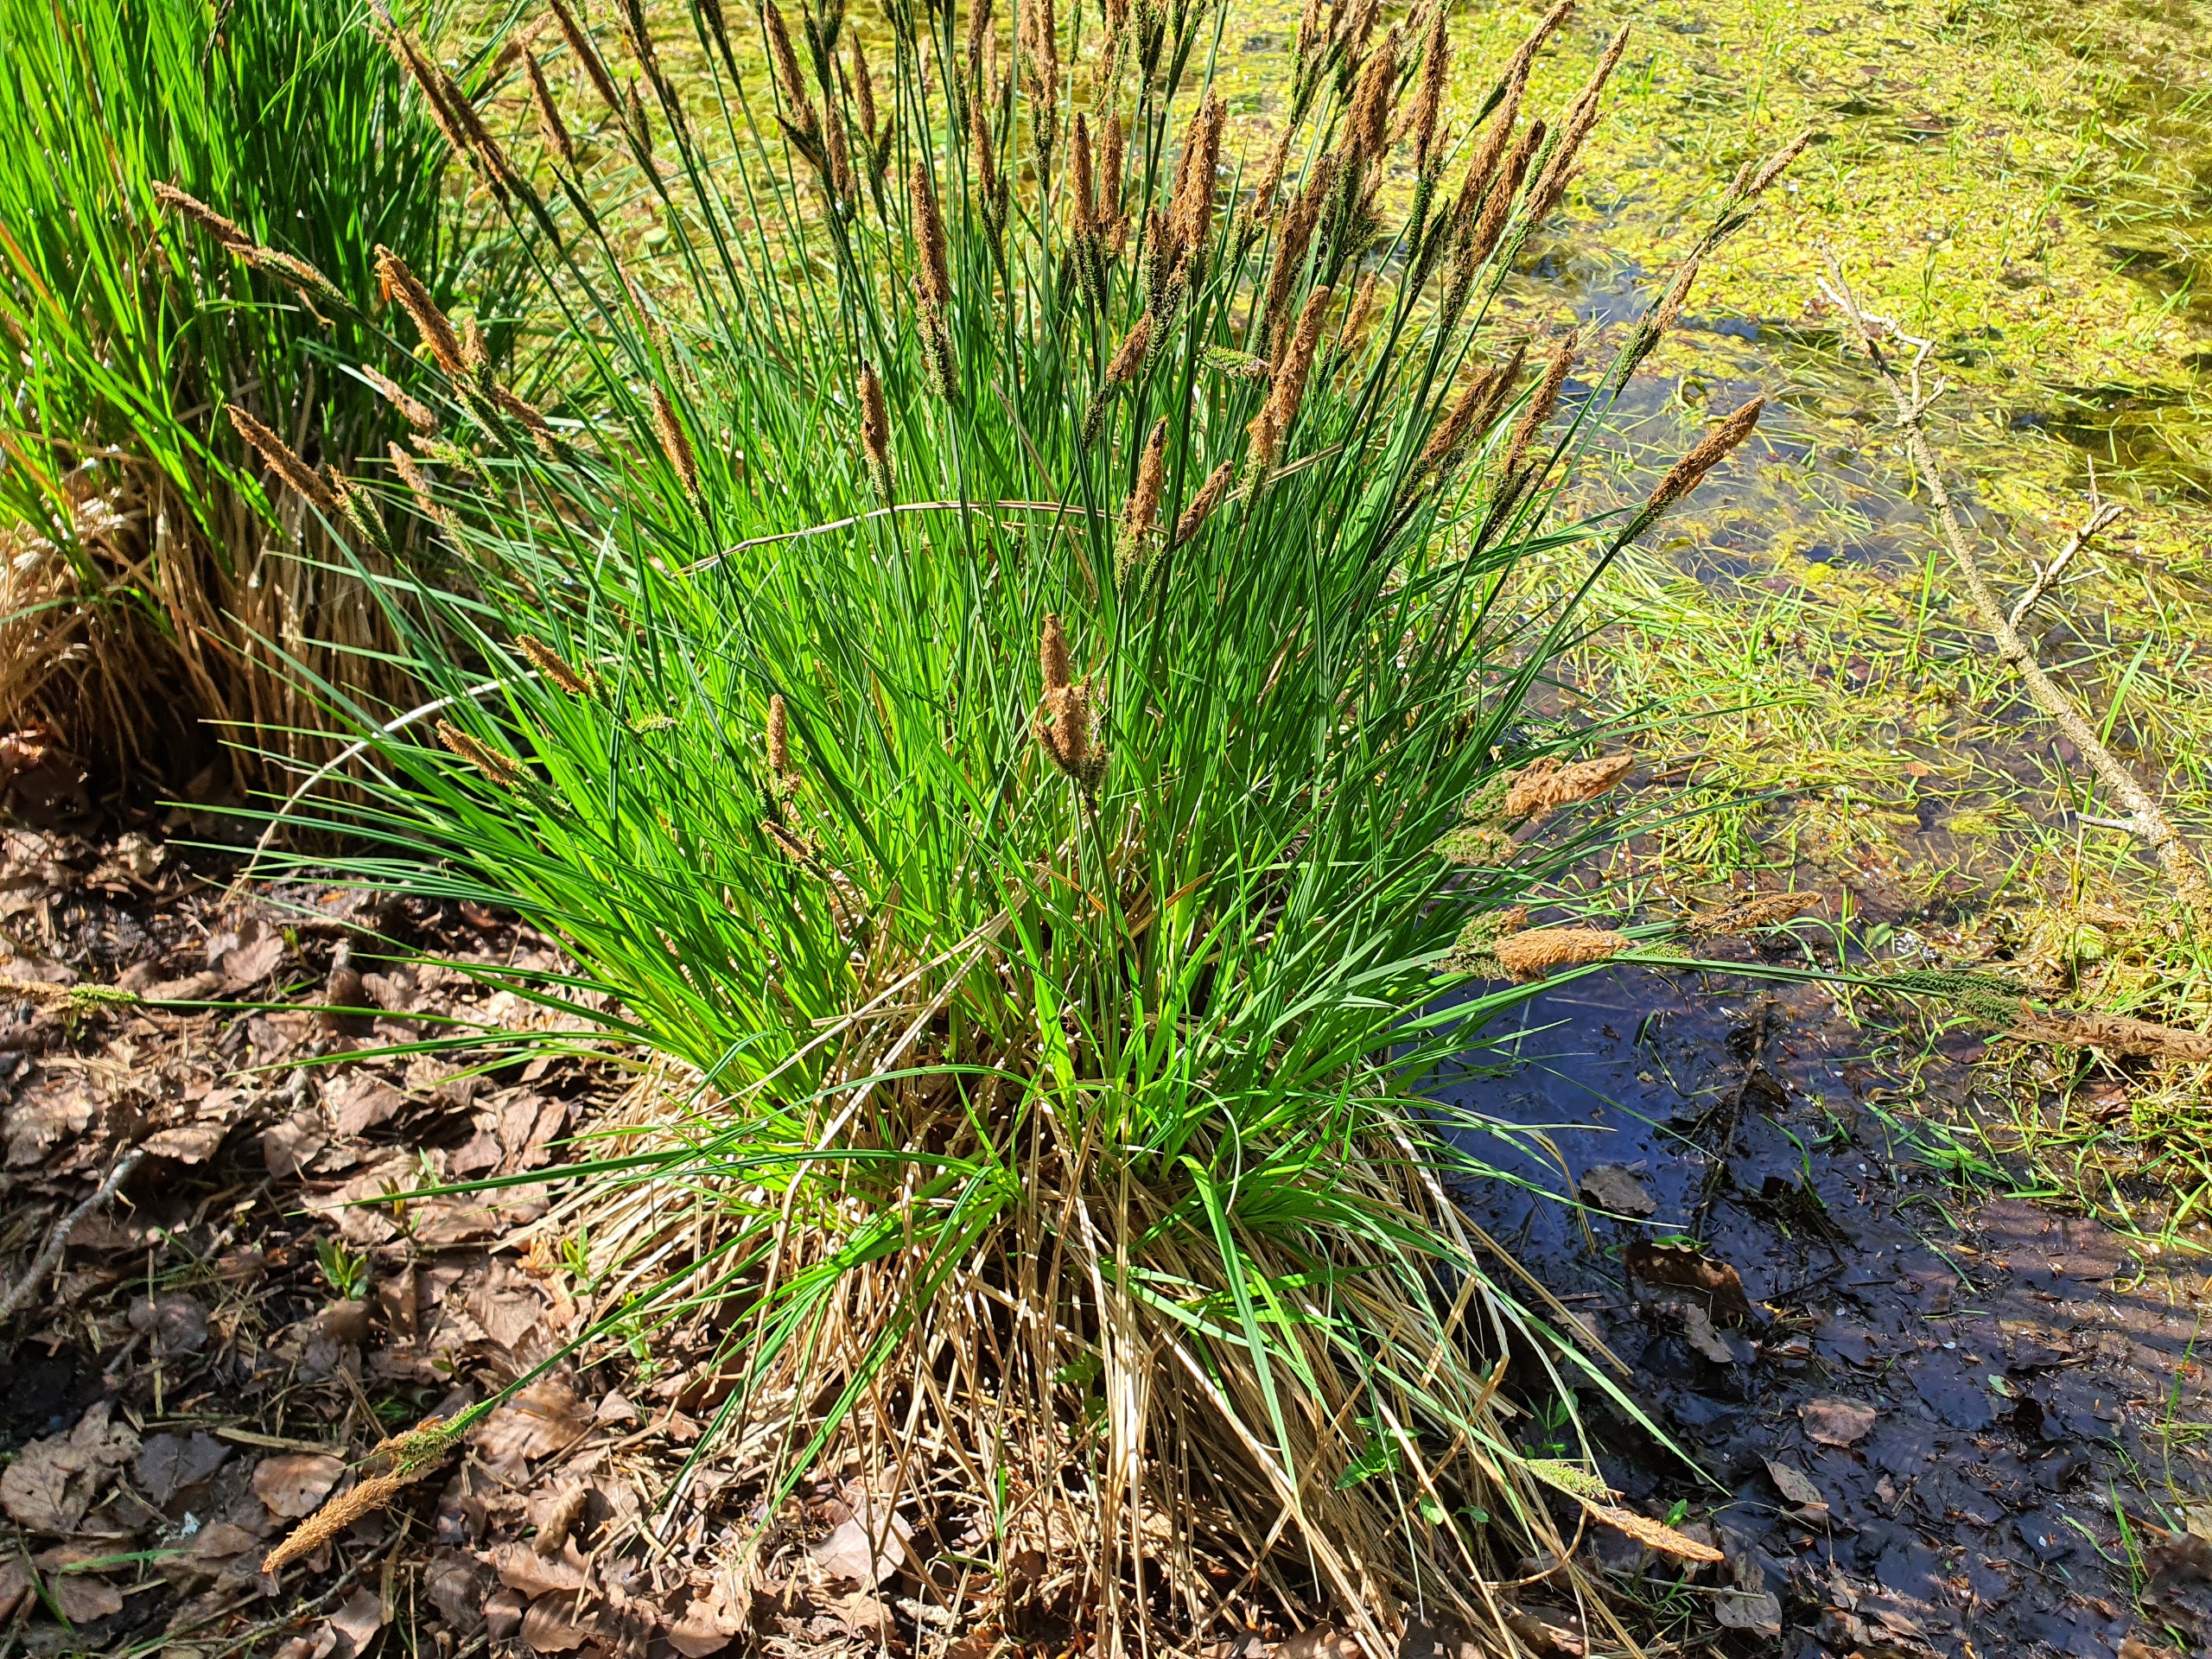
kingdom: Plantae
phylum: Tracheophyta
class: Liliopsida
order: Poales
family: Cyperaceae
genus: Carex
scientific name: Carex elata
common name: Stiv star
